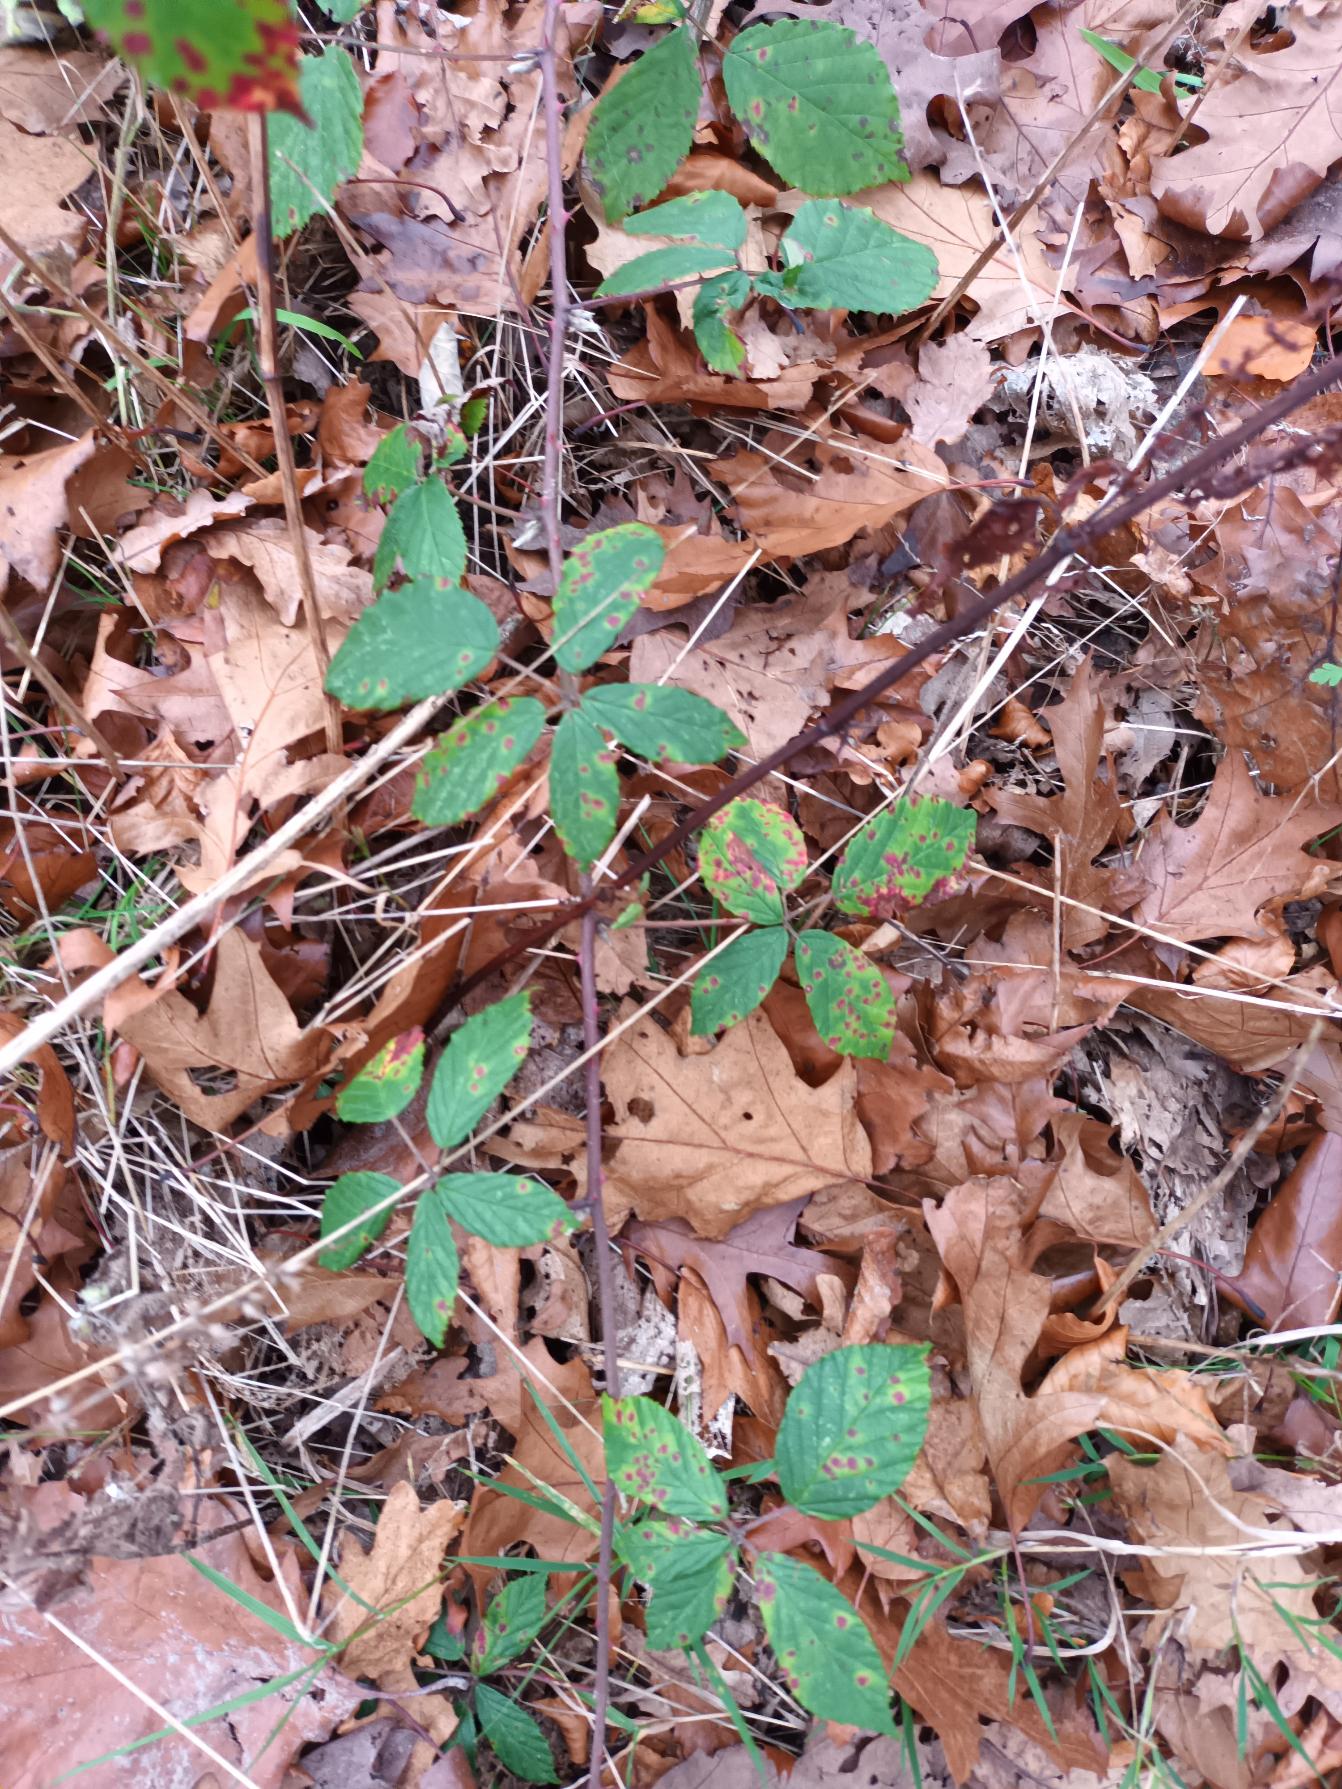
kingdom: Plantae
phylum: Tracheophyta
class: Magnoliopsida
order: Rosales
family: Rosaceae
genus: Rubus
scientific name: Rubus radula
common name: Rasperu brombær
